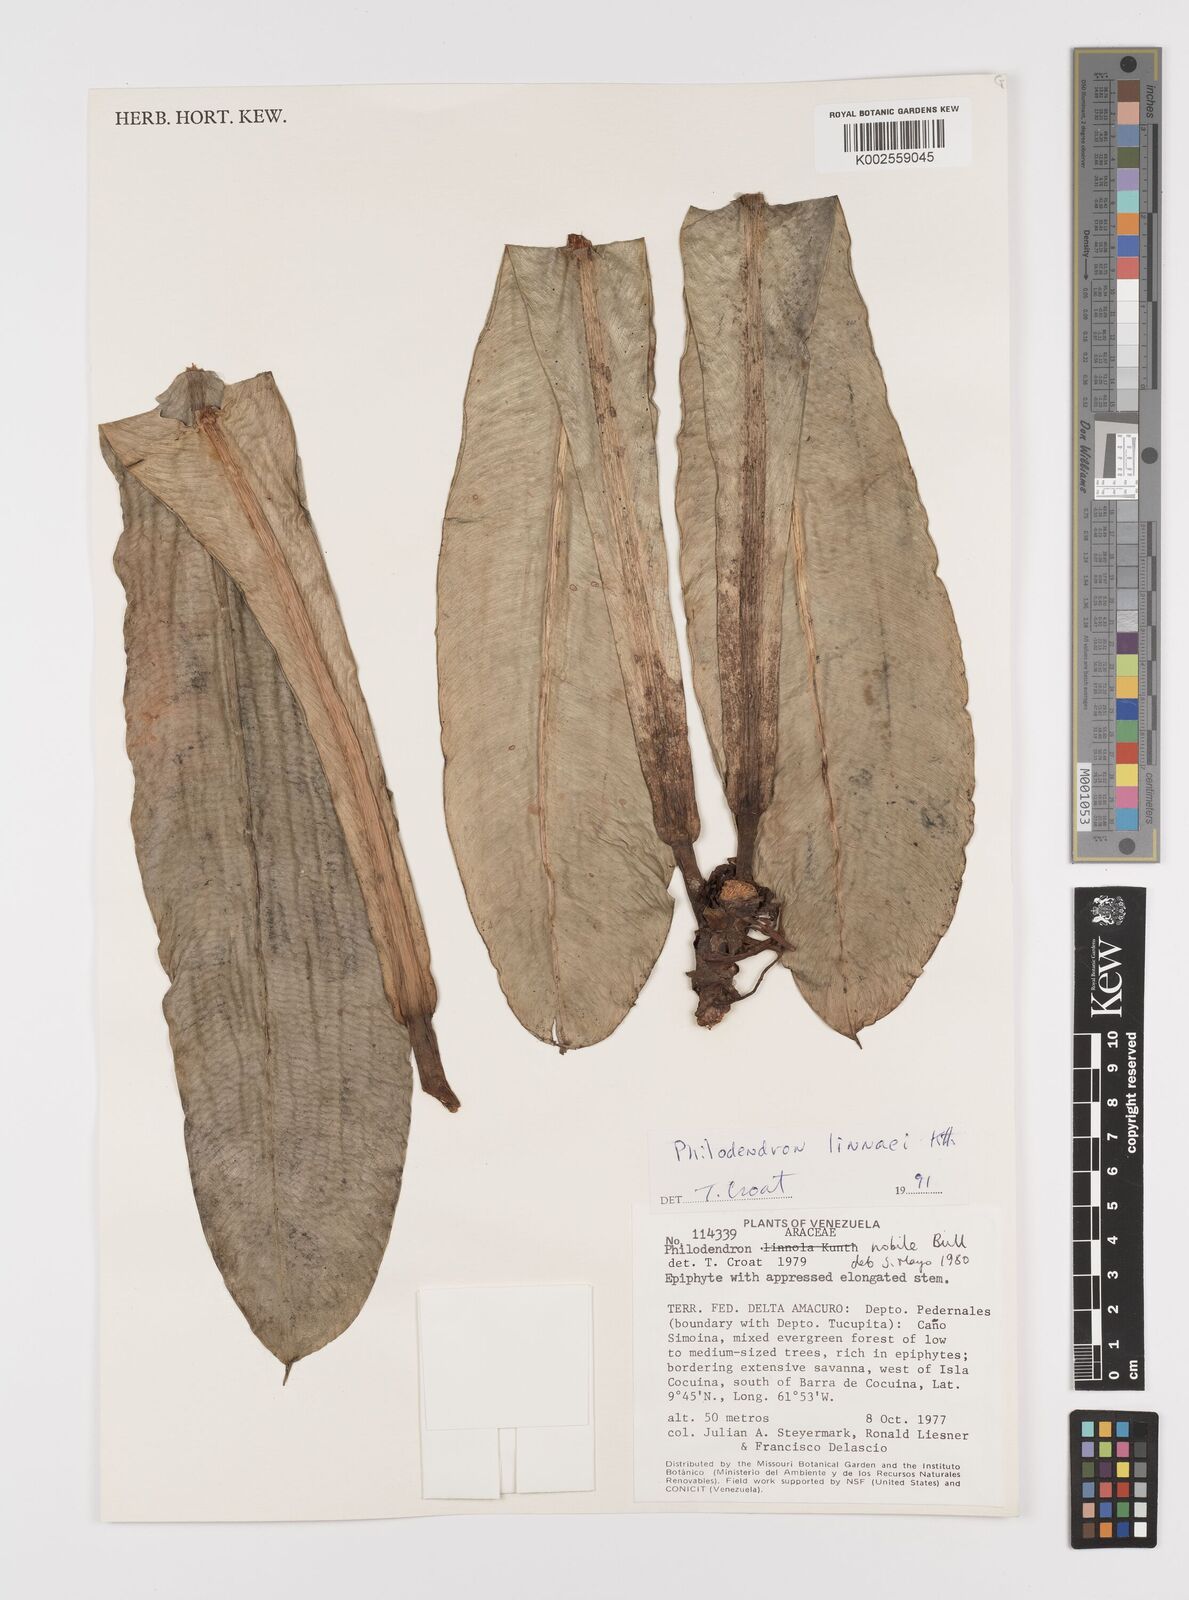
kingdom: Plantae
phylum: Tracheophyta
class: Liliopsida
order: Alismatales
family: Araceae
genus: Philodendron
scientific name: Philodendron linnaei
